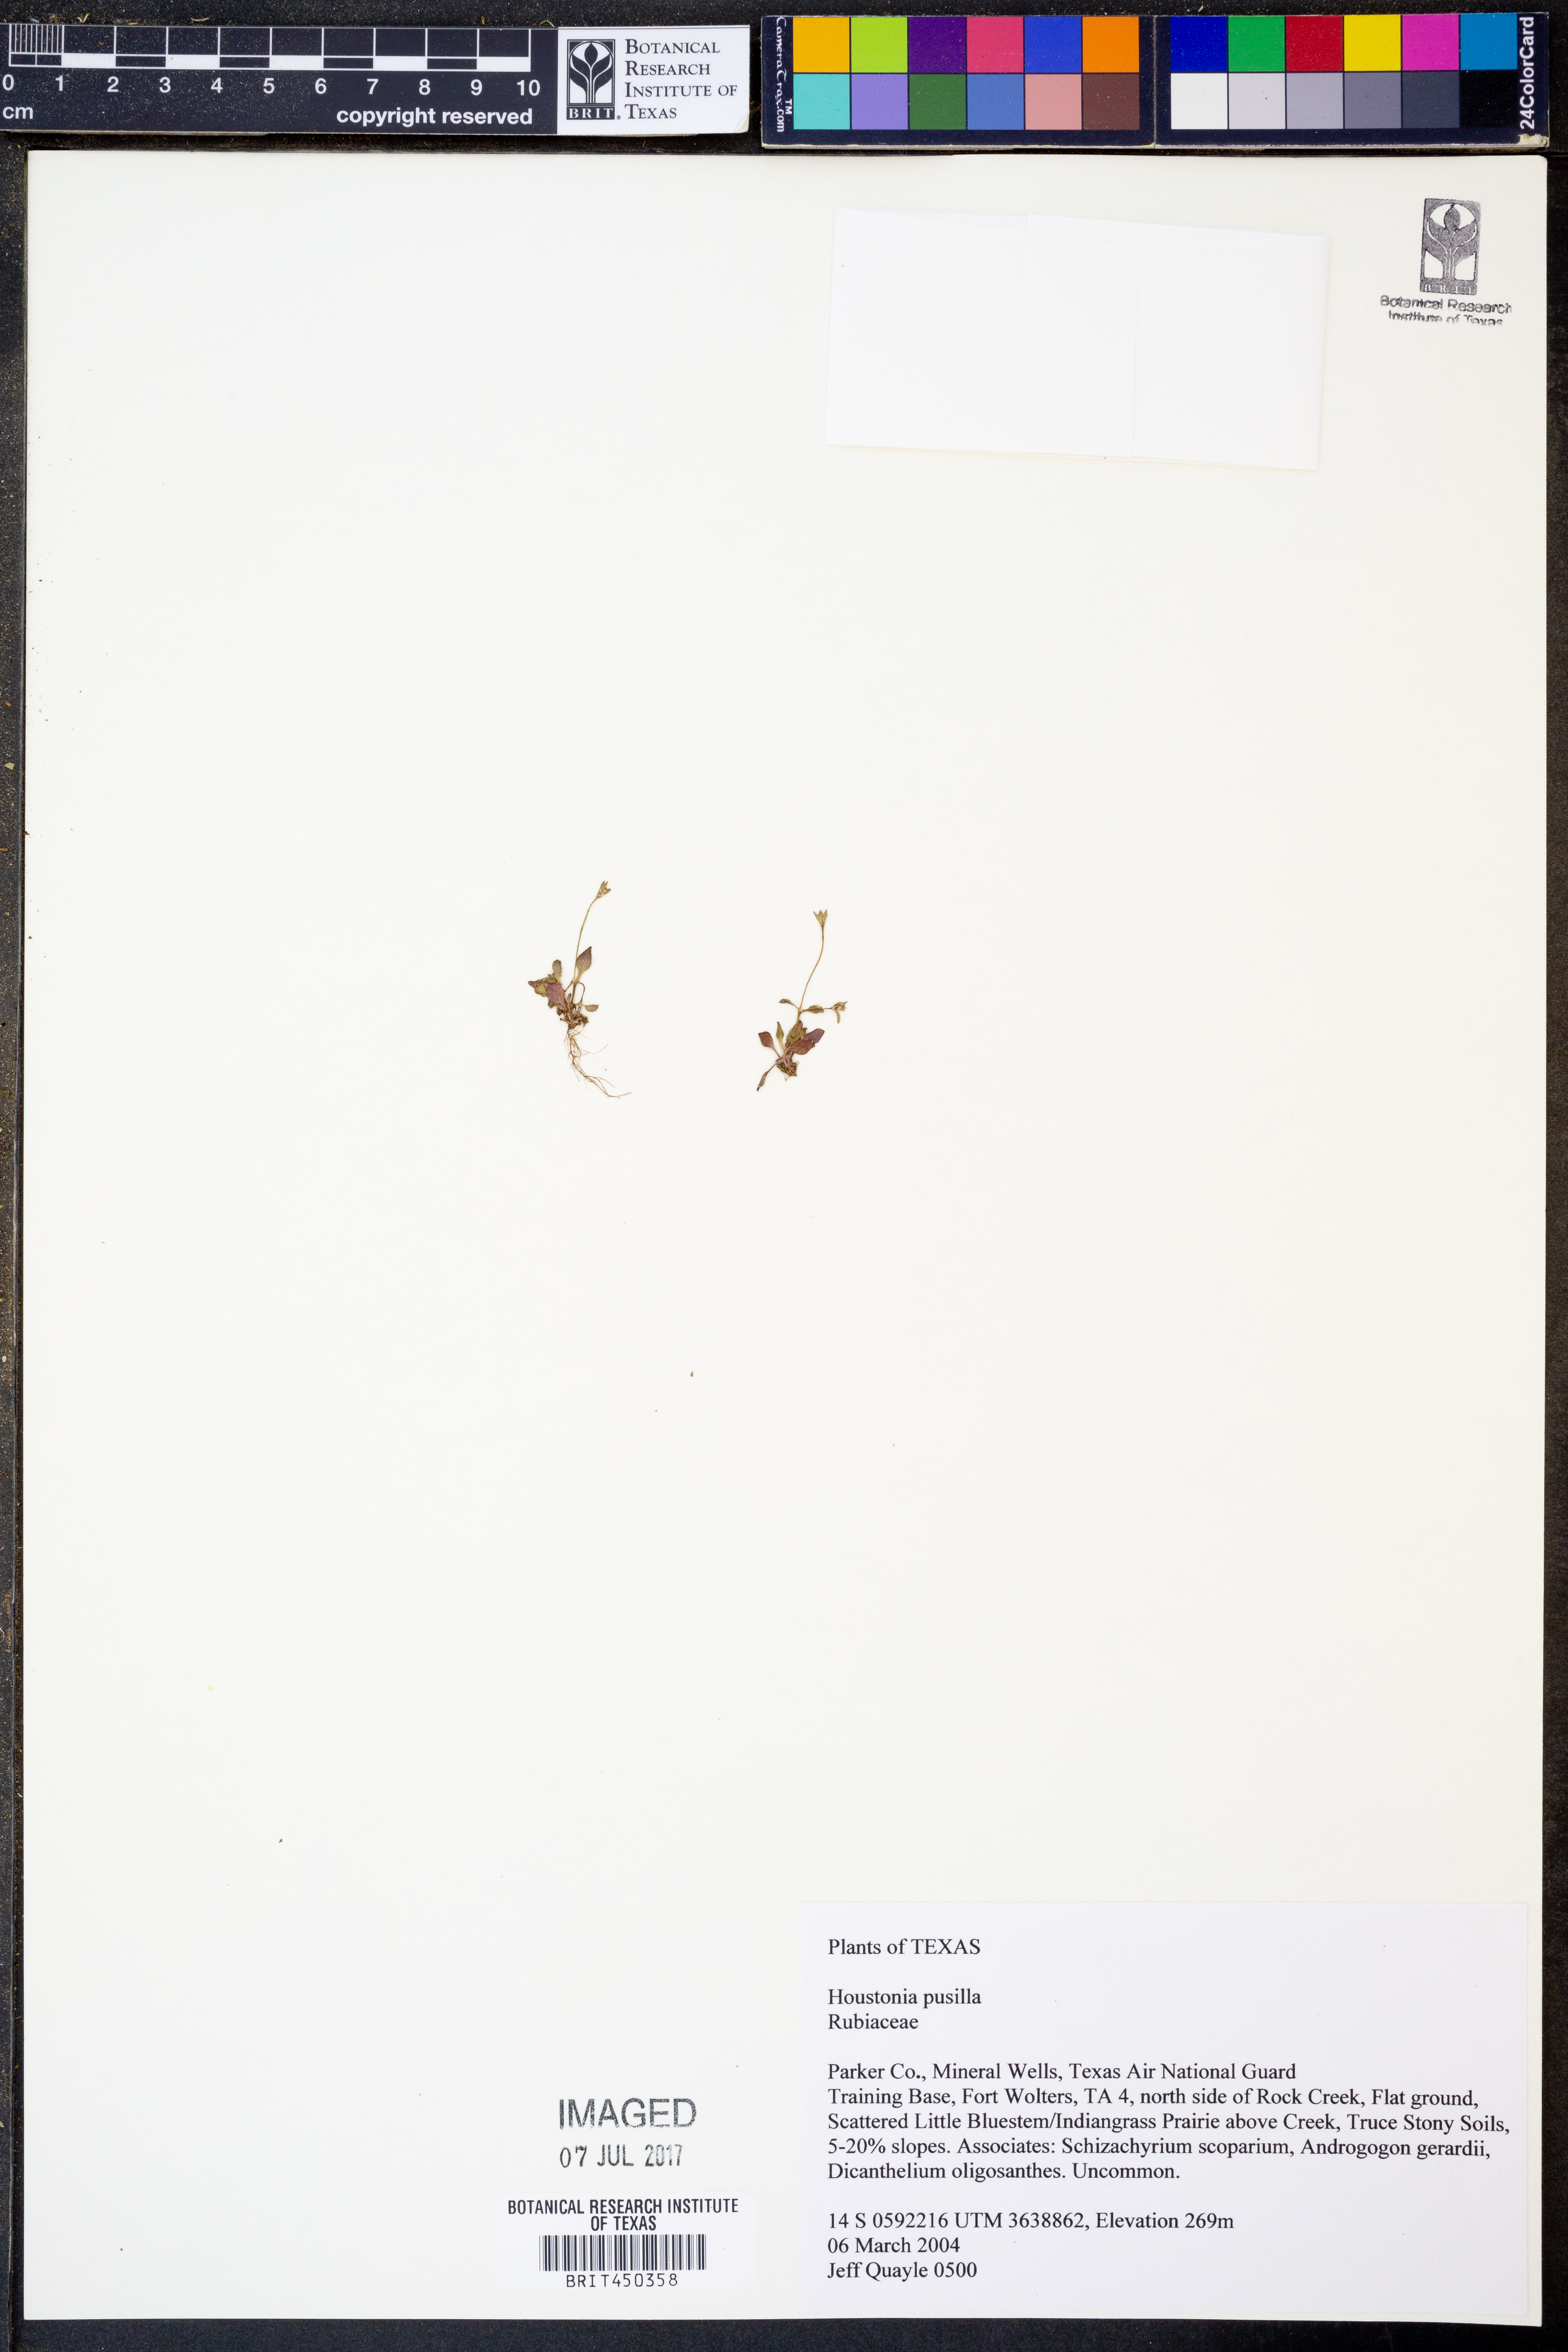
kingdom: Plantae
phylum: Tracheophyta
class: Magnoliopsida
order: Gentianales
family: Rubiaceae
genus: Houstonia
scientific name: Houstonia pusilla
